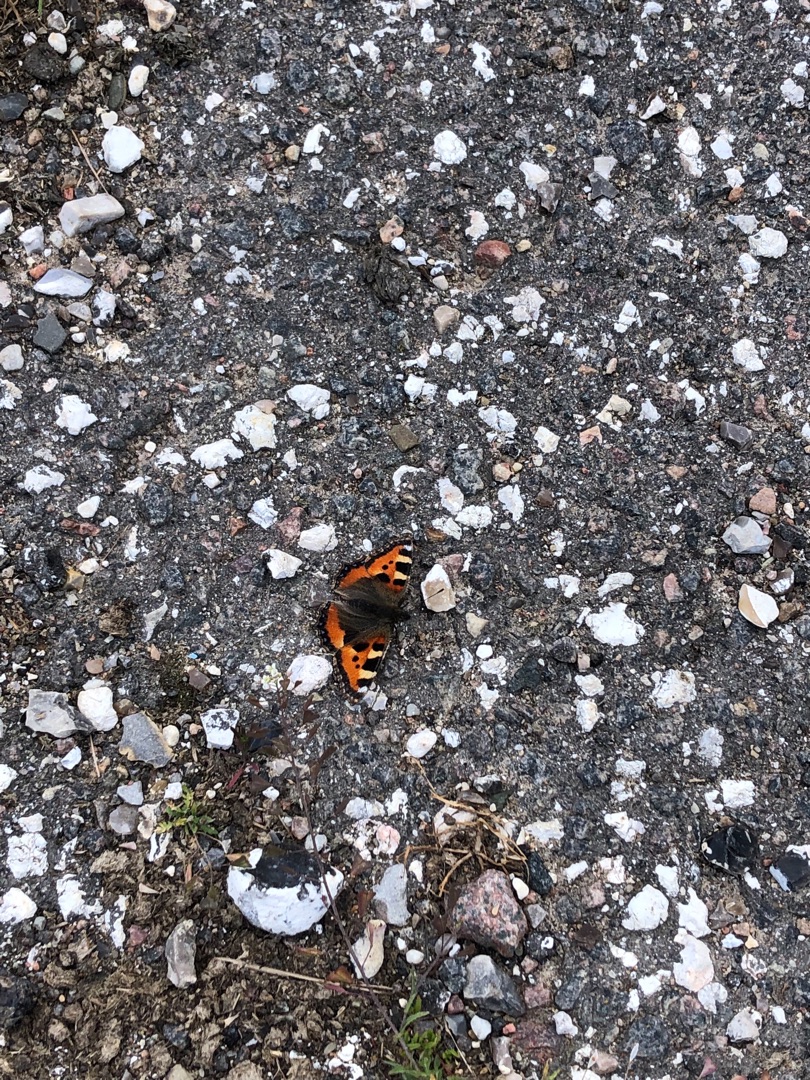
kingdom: Animalia
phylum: Arthropoda
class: Insecta
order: Lepidoptera
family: Nymphalidae
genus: Aglais
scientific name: Aglais urticae
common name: Nældens takvinge
